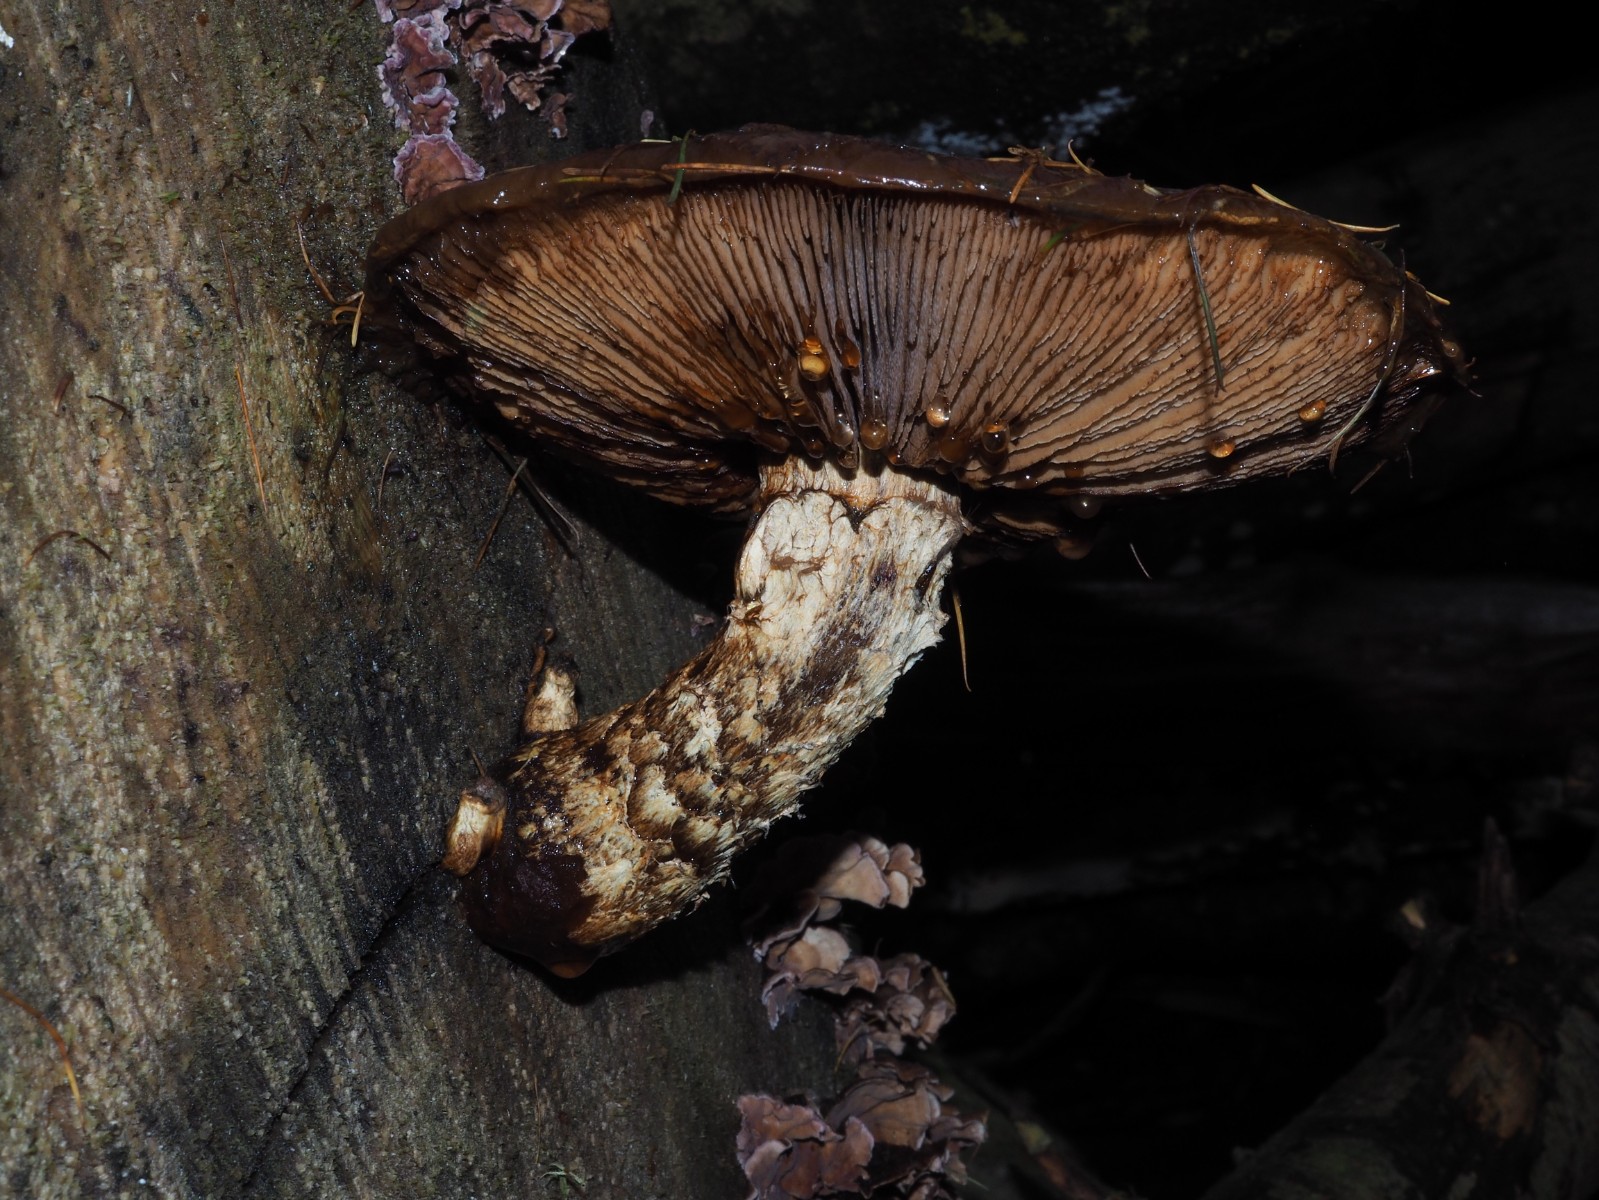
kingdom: Fungi
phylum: Basidiomycota
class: Agaricomycetes
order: Agaricales
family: Strophariaceae
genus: Pholiota
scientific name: Pholiota populnea
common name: poppel-kæmpeskælhat
